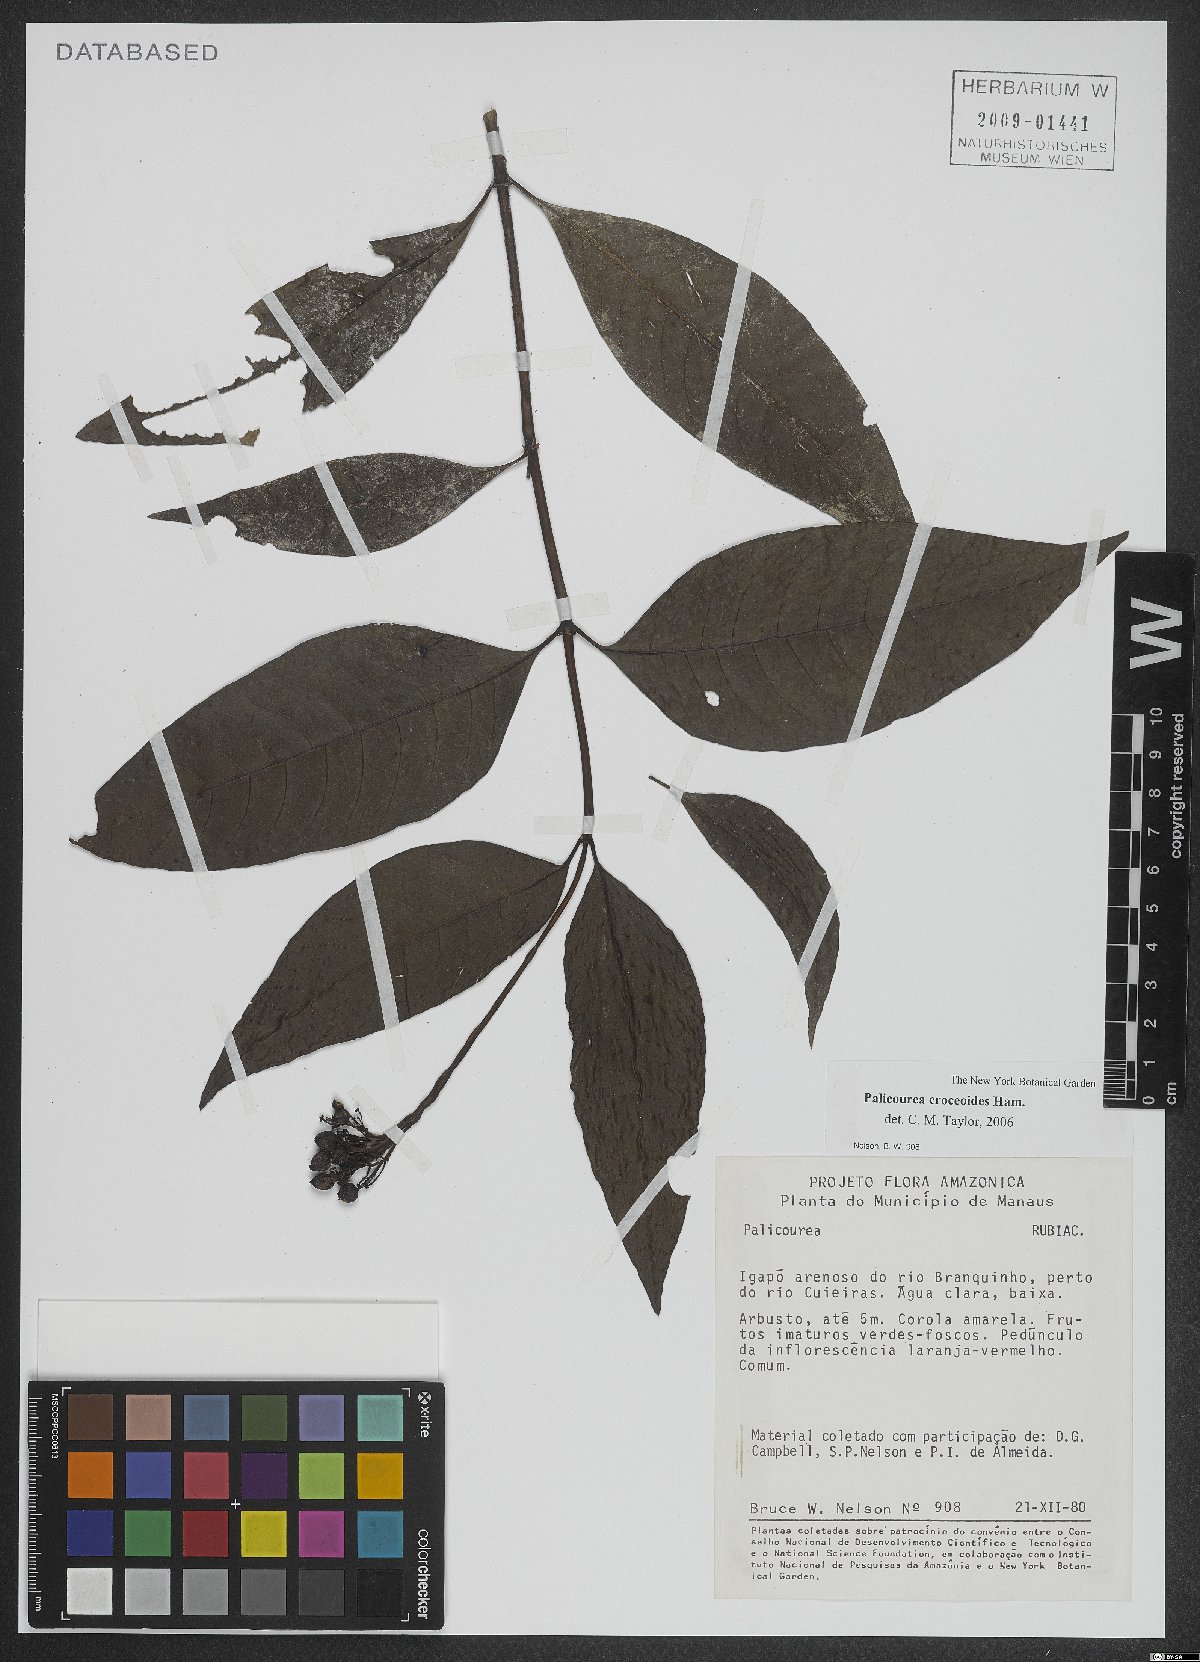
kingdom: Plantae
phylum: Tracheophyta
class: Magnoliopsida
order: Gentianales
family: Rubiaceae
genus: Palicourea
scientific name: Palicourea croceoides
